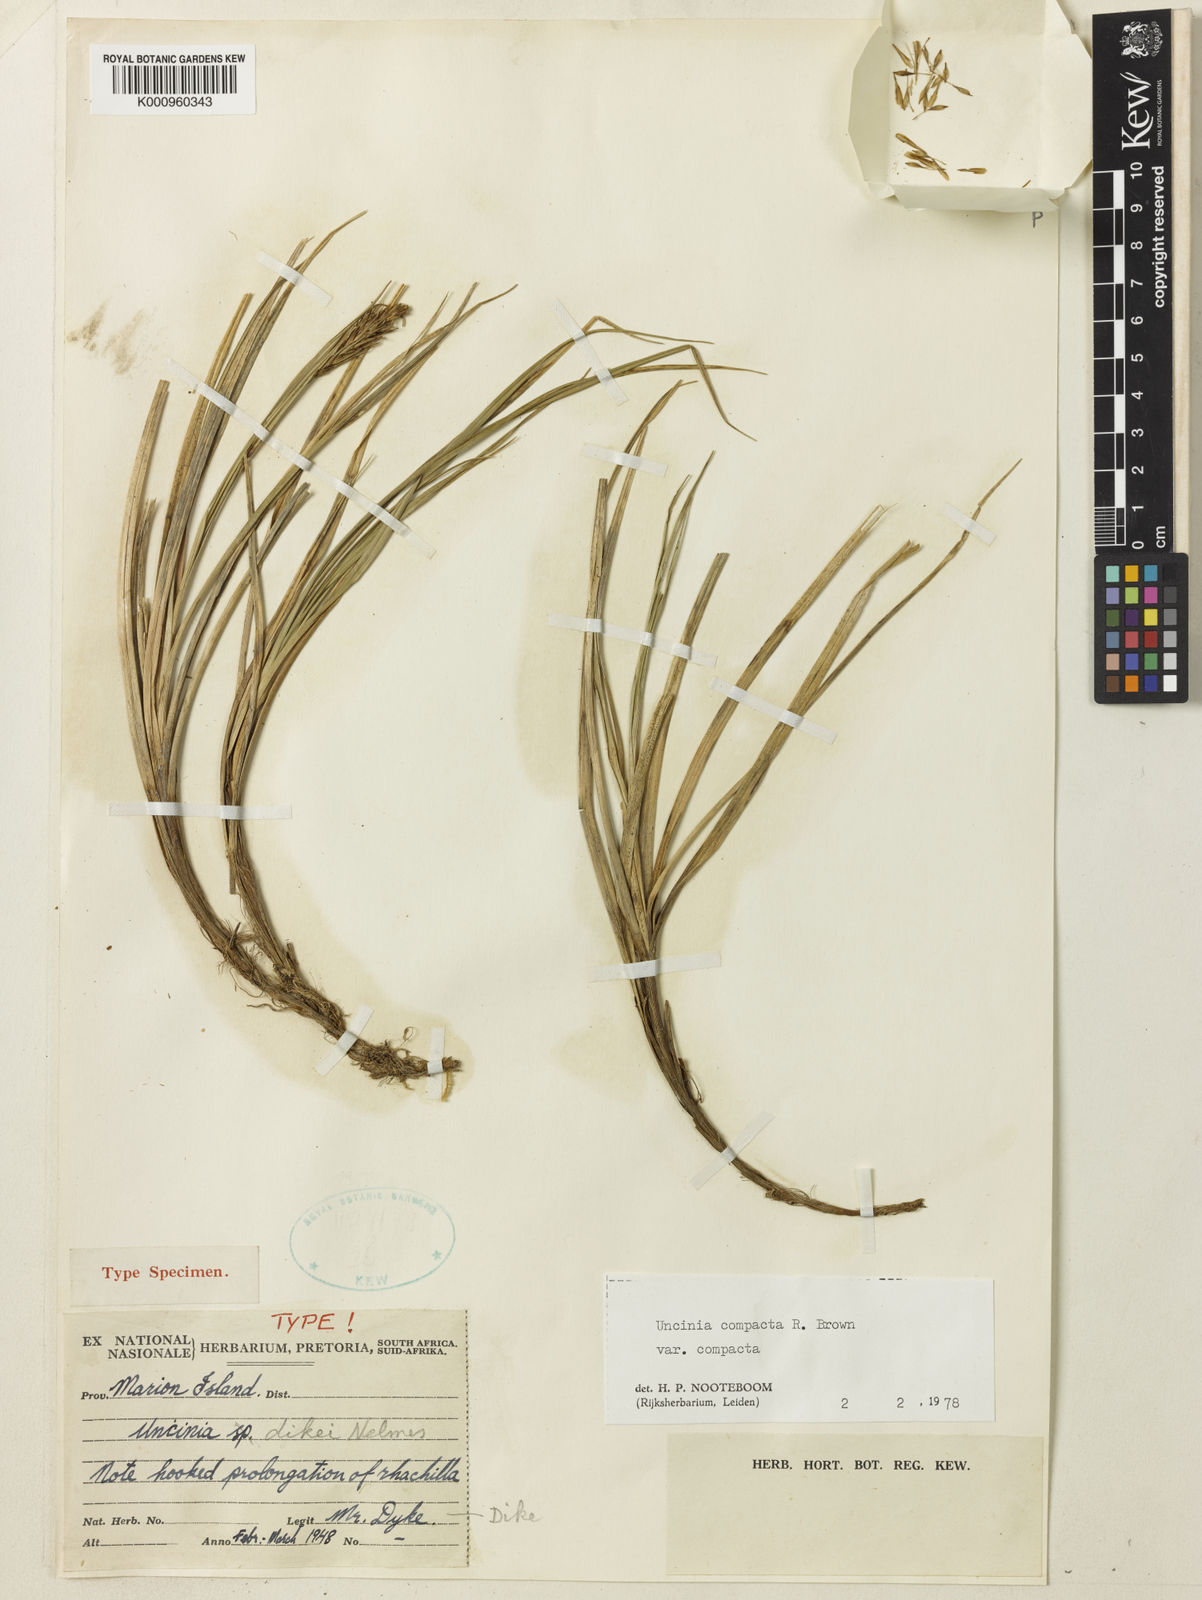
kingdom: Plantae
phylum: Tracheophyta
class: Liliopsida
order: Poales
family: Cyperaceae
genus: Carex
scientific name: Carex austrocompacta
